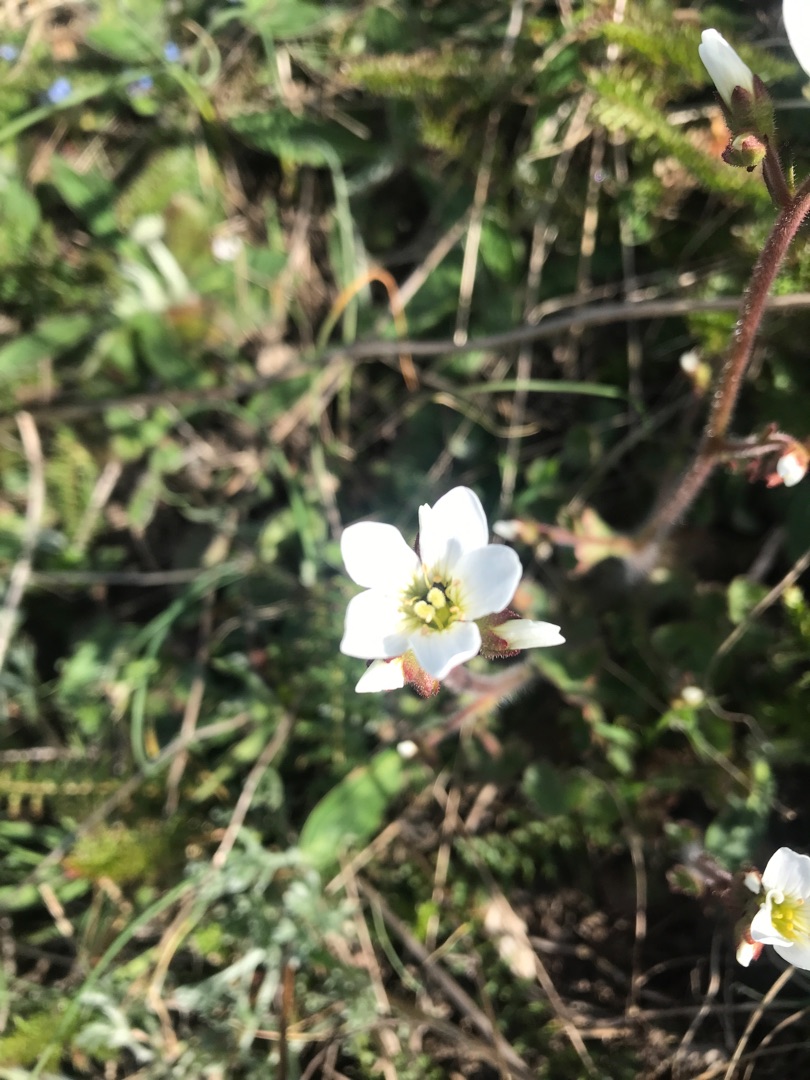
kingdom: Plantae
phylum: Tracheophyta
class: Magnoliopsida
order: Saxifragales
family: Saxifragaceae
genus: Saxifraga
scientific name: Saxifraga granulata
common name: Kornet stenbræk
